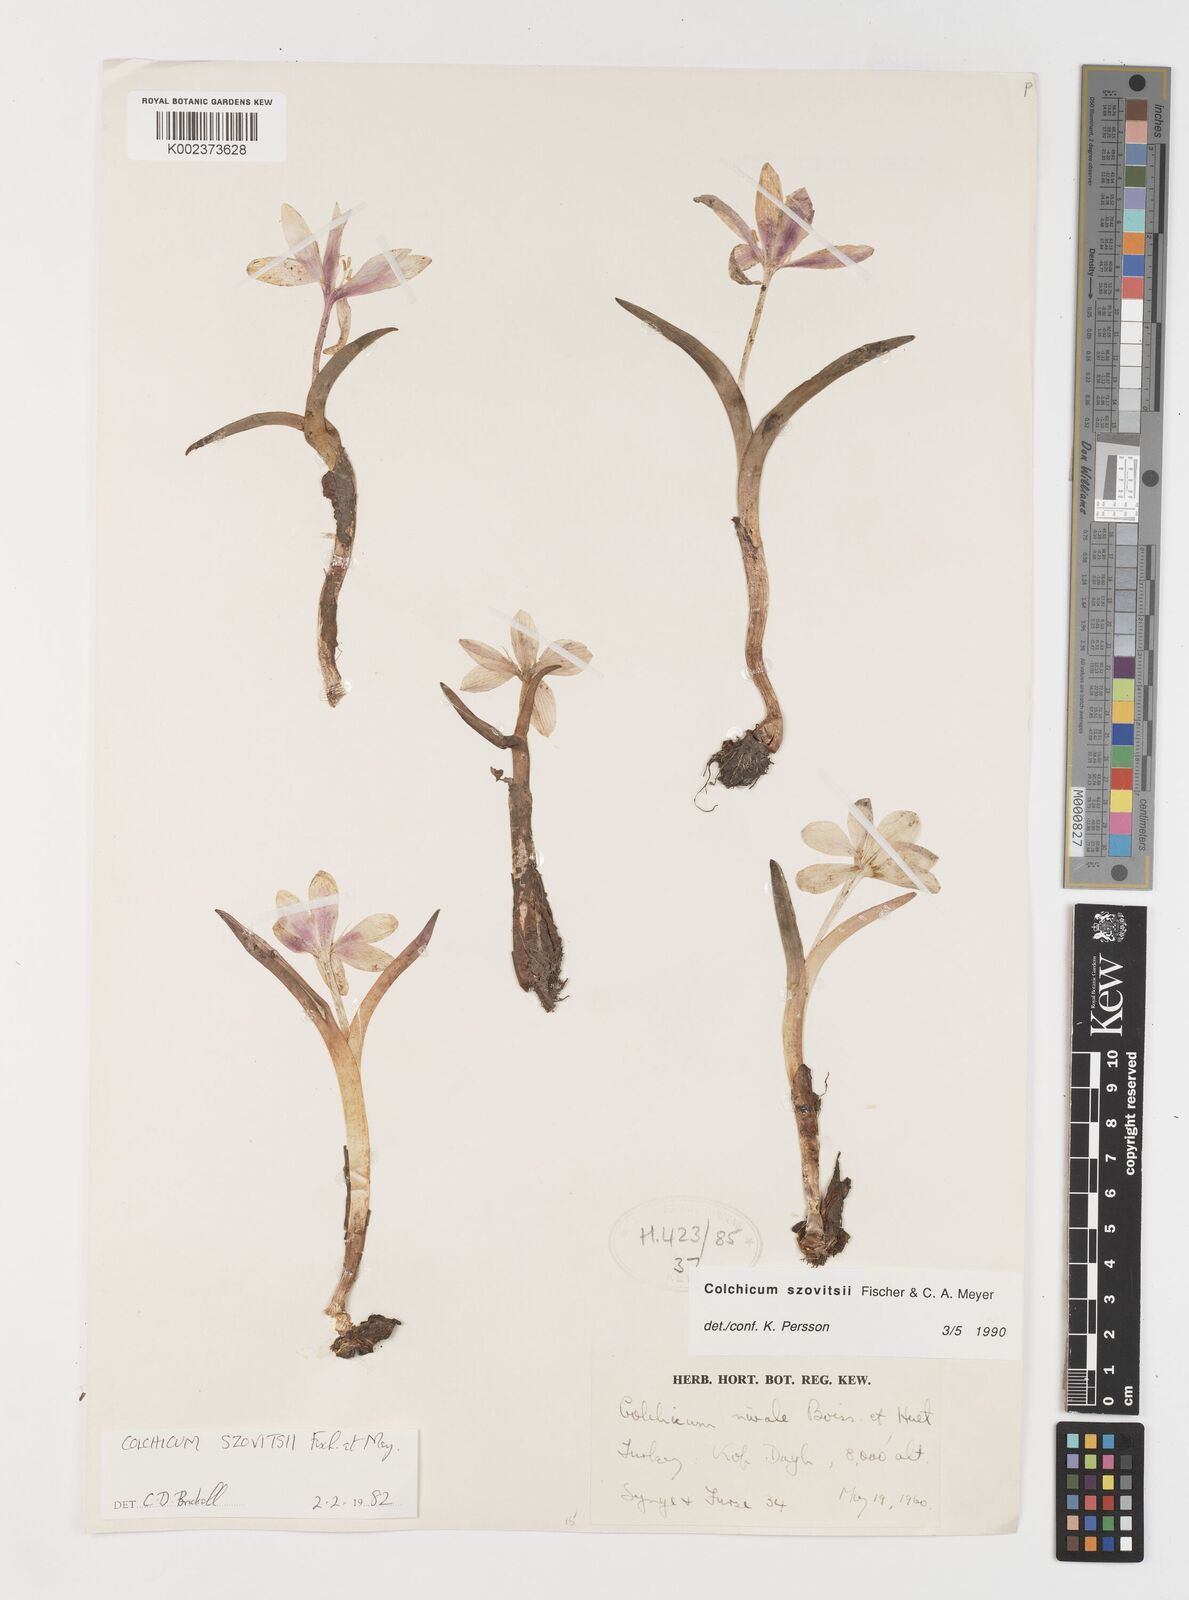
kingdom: Plantae
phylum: Tracheophyta
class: Liliopsida
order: Liliales
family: Colchicaceae
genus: Colchicum
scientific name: Colchicum szovitsii
